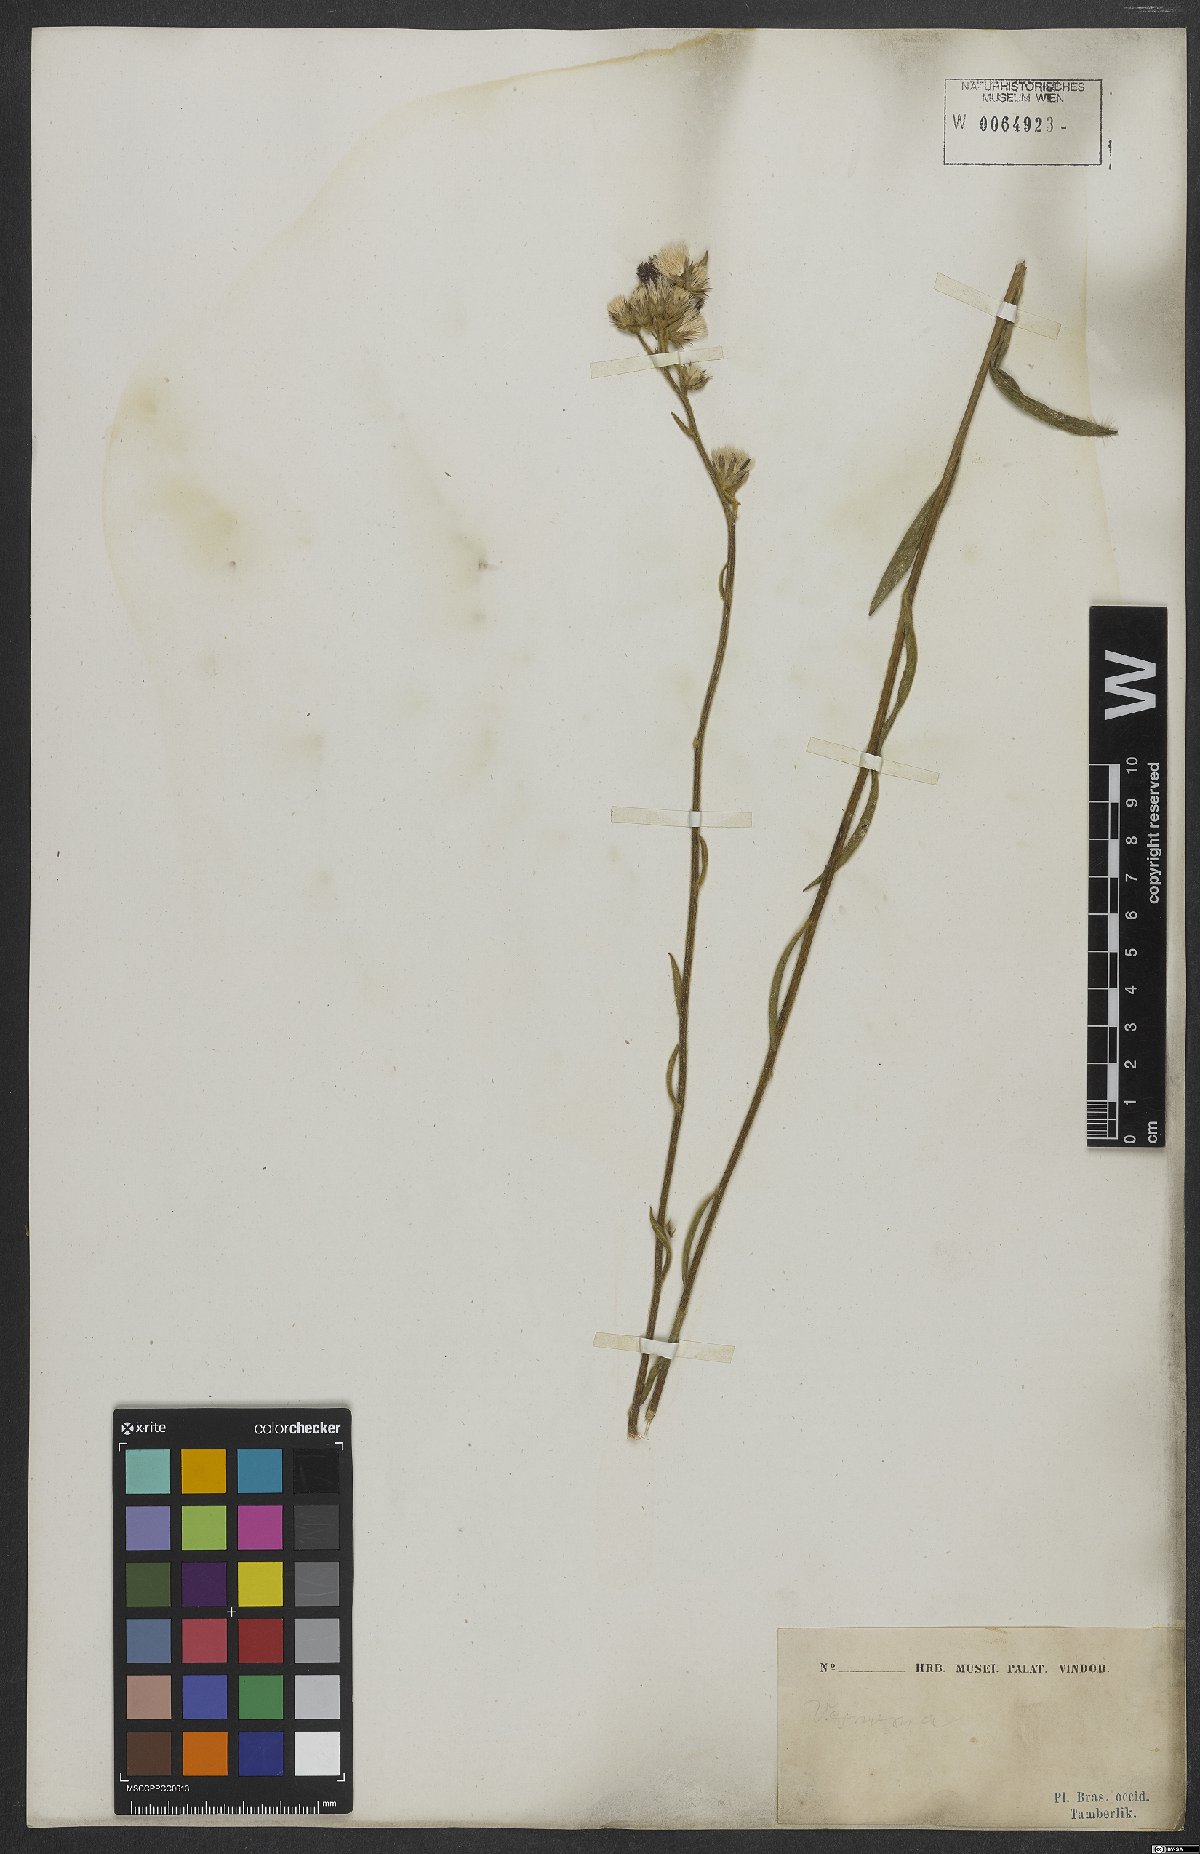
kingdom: Plantae
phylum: Tracheophyta
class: Magnoliopsida
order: Asterales
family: Asteraceae
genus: Chrysolaena
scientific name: Chrysolaena simplex
